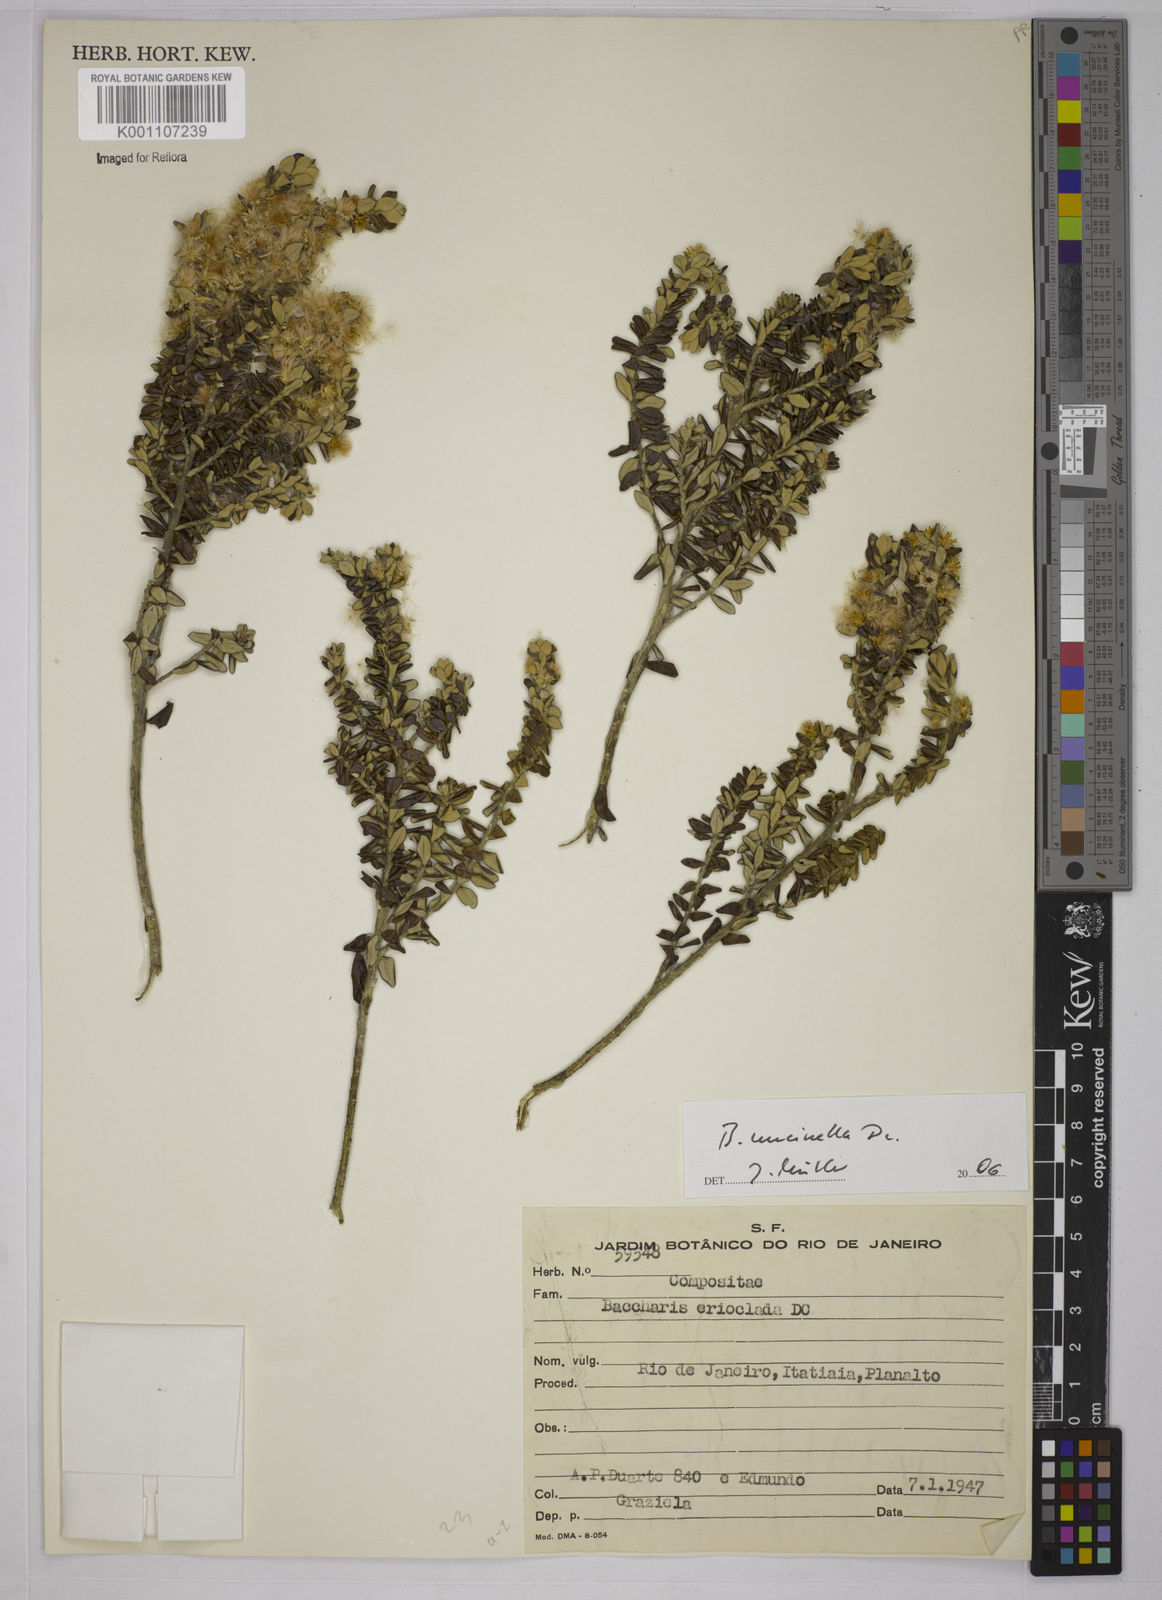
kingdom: Plantae
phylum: Tracheophyta
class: Magnoliopsida
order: Asterales
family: Asteraceae
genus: Baccharis
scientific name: Baccharis uncinella
